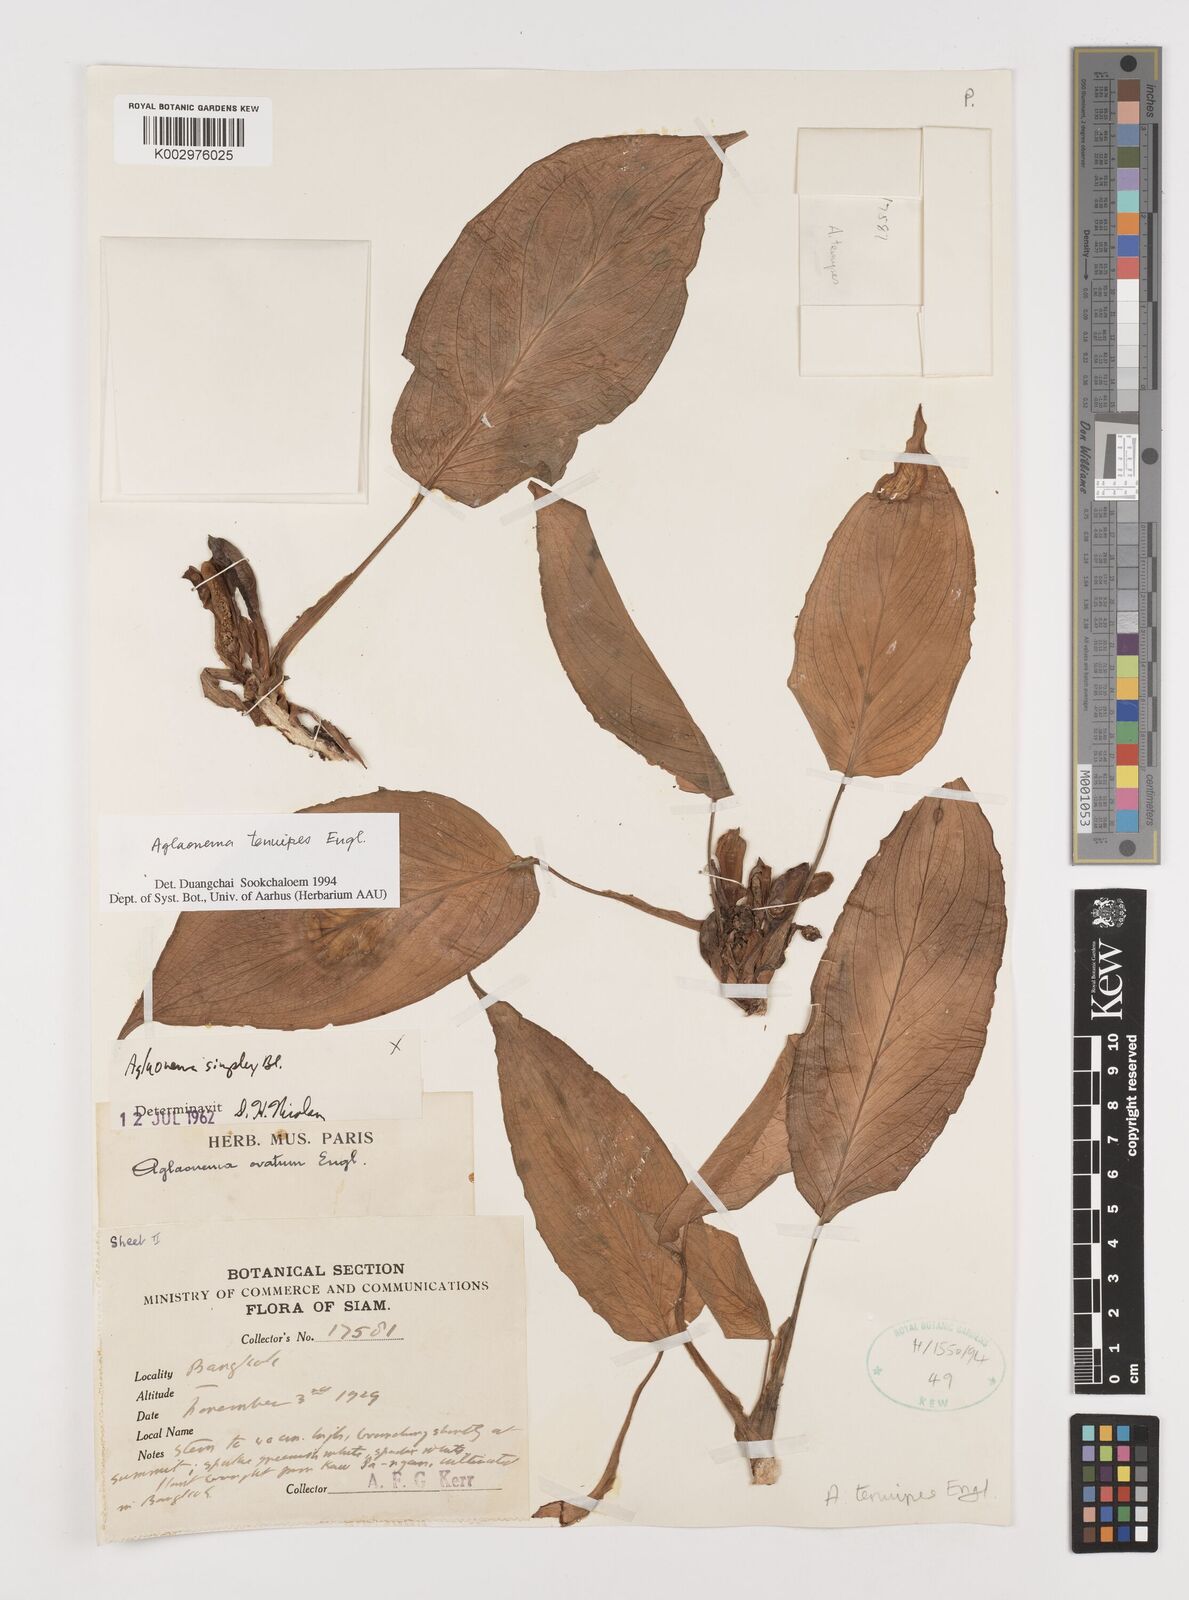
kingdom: Plantae
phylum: Tracheophyta
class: Liliopsida
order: Alismatales
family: Araceae
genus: Aglaonema
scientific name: Aglaonema simplex
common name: Malayan-sword
